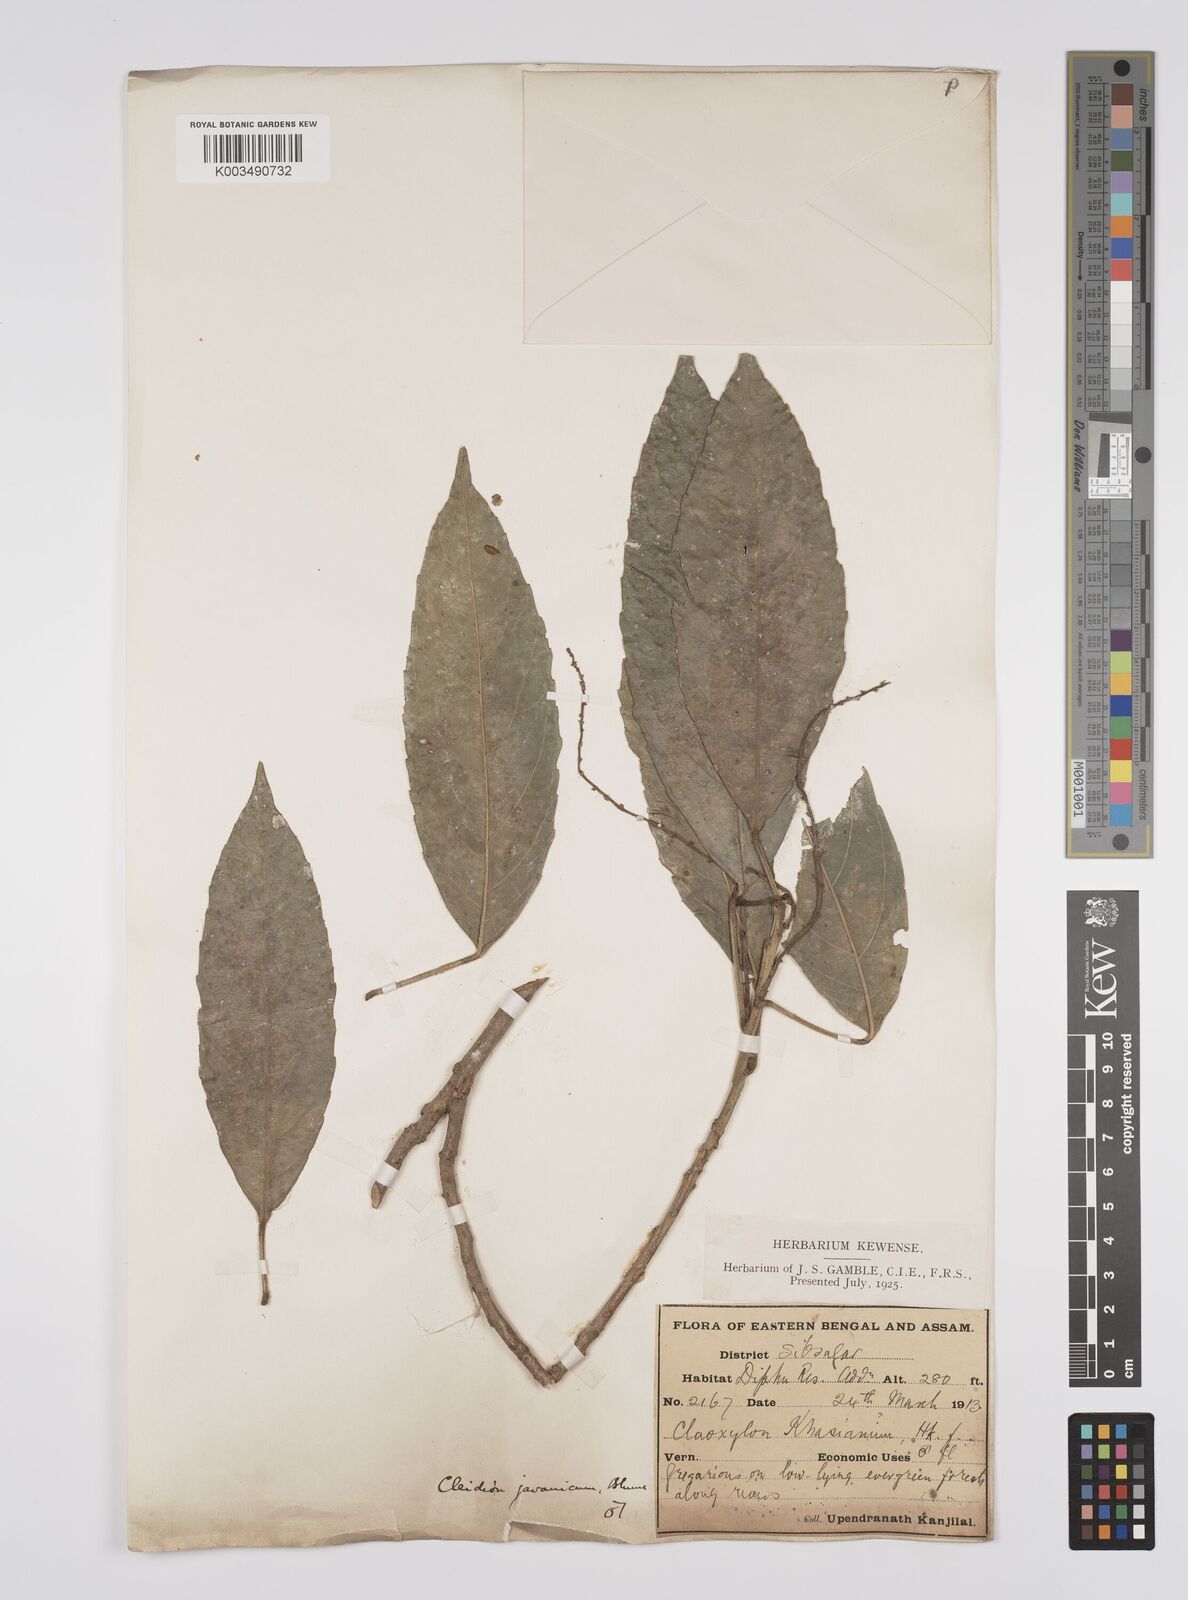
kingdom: Plantae
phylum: Tracheophyta
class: Magnoliopsida
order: Malpighiales
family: Euphorbiaceae
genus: Acalypha
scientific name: Acalypha spiciflora
